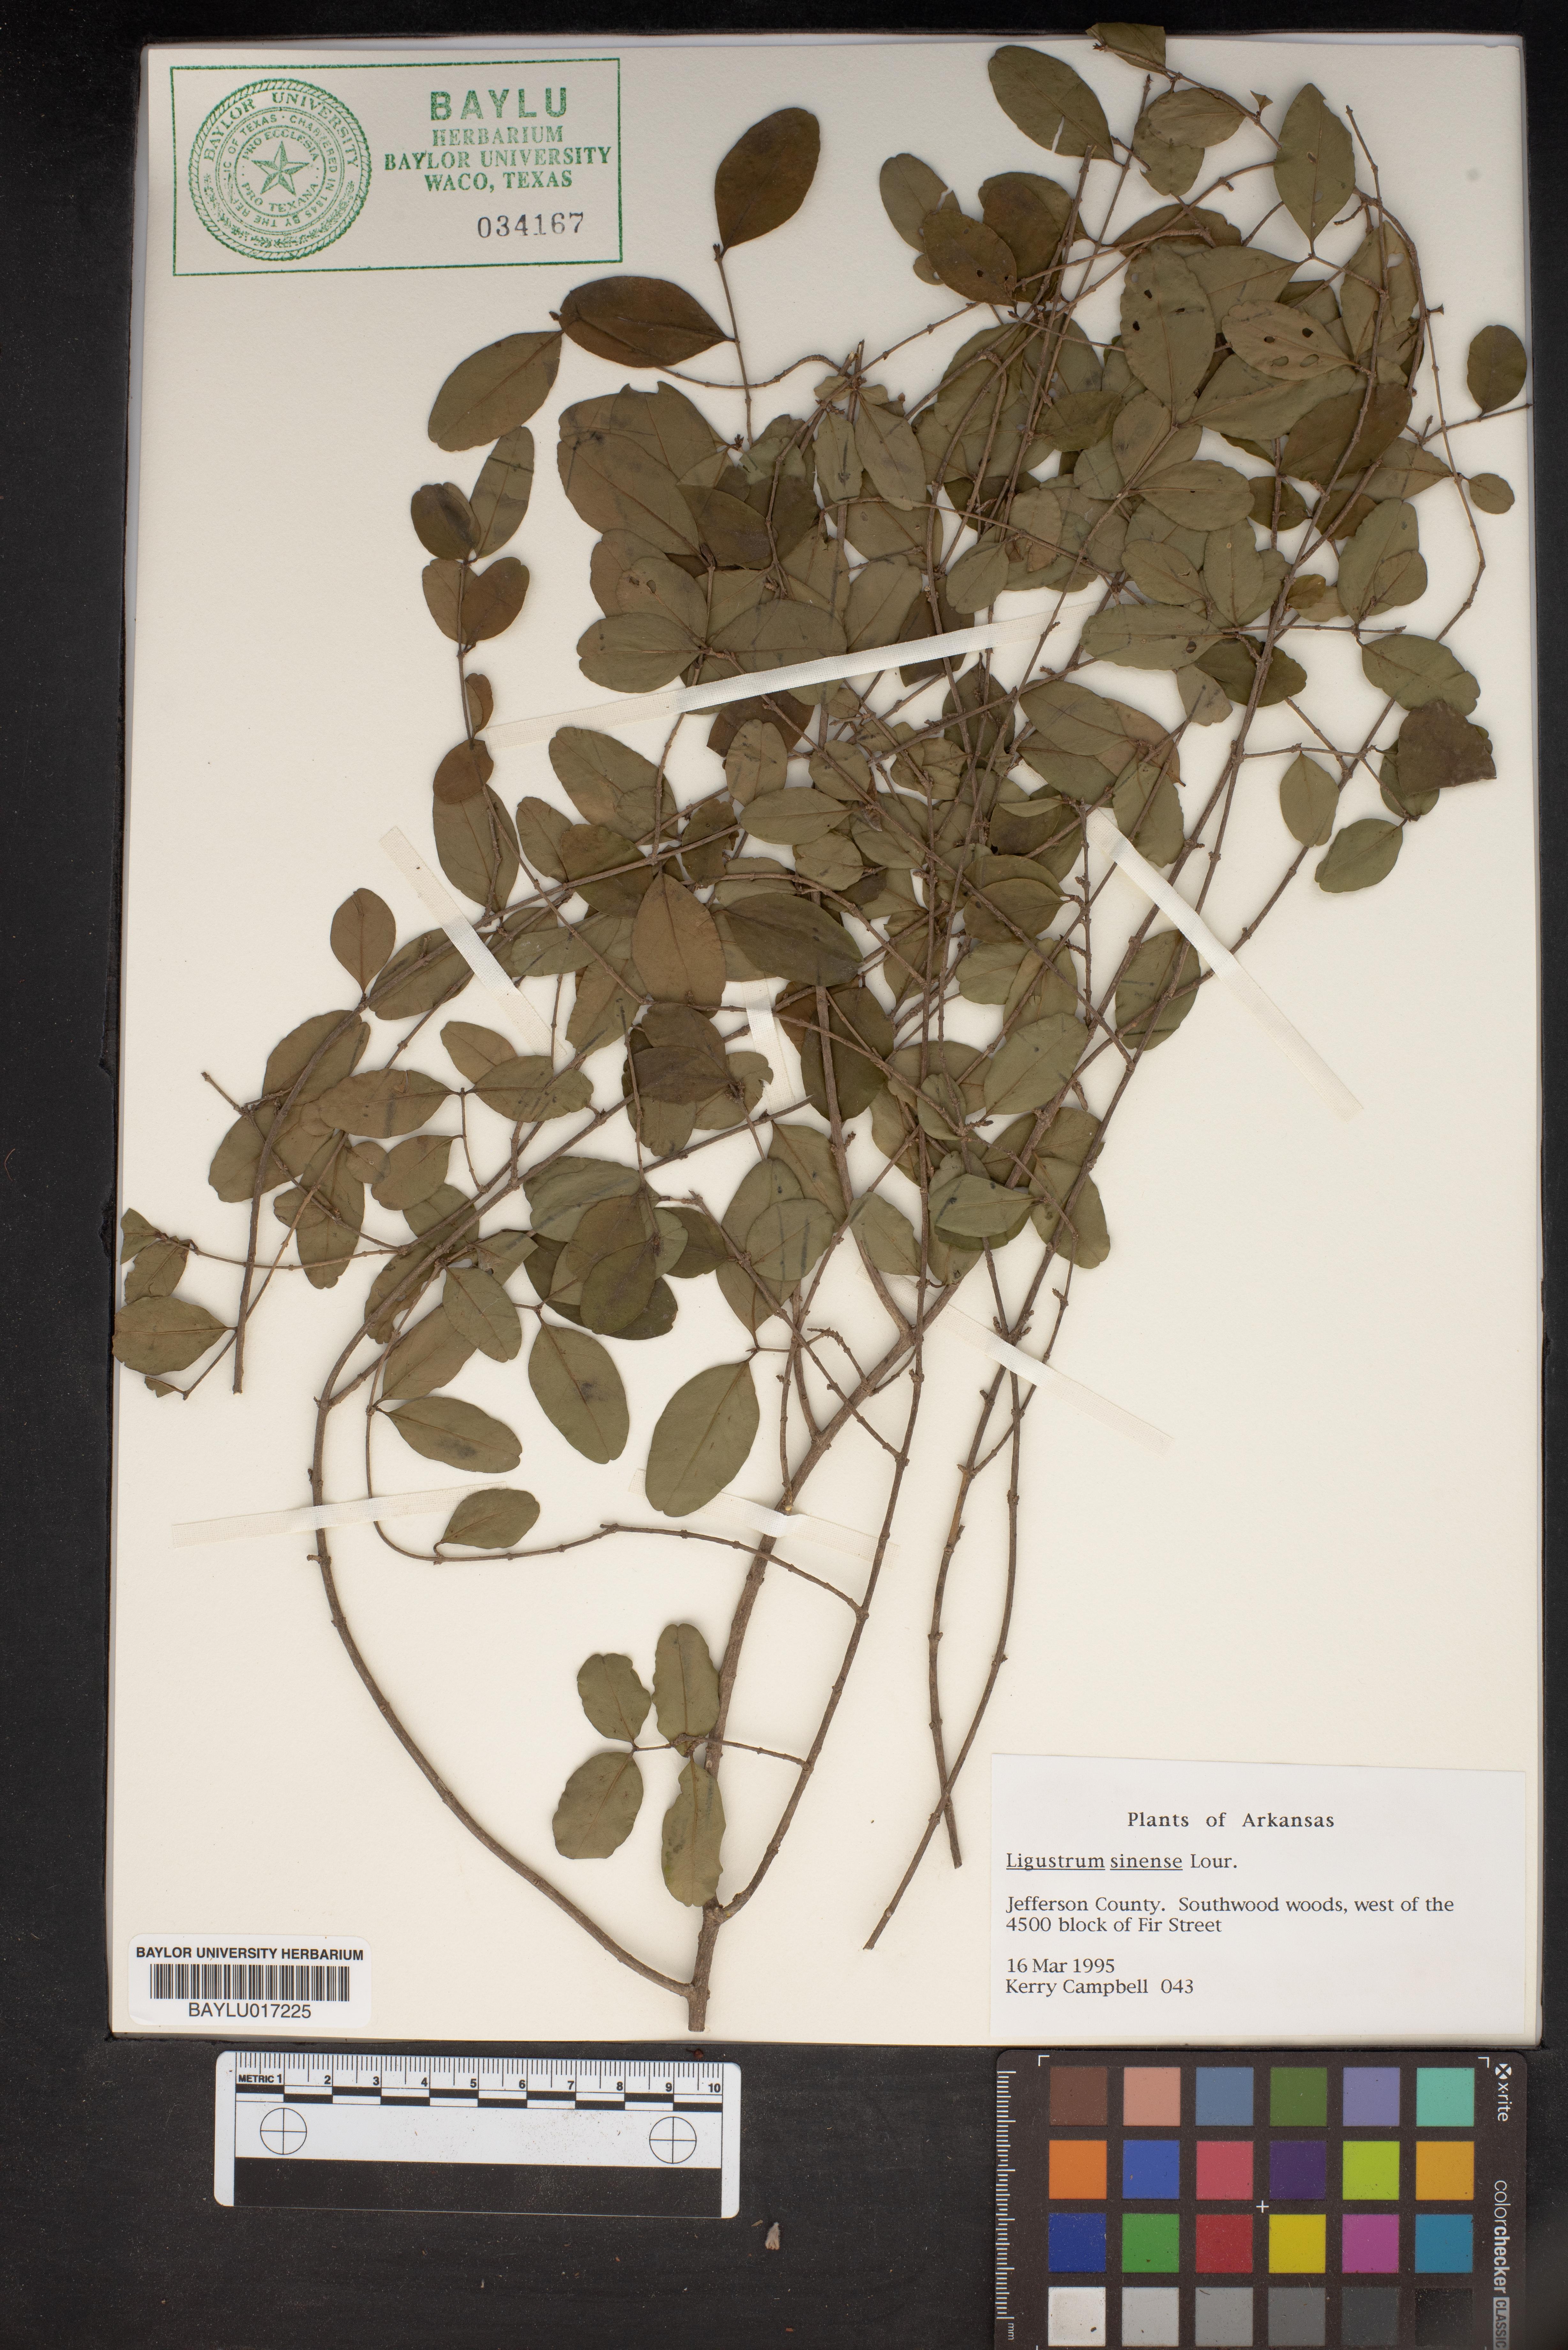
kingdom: Plantae
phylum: Tracheophyta
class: Magnoliopsida
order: Lamiales
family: Oleaceae
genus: Ligustrum
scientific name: Ligustrum sinense
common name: Chinese privet
